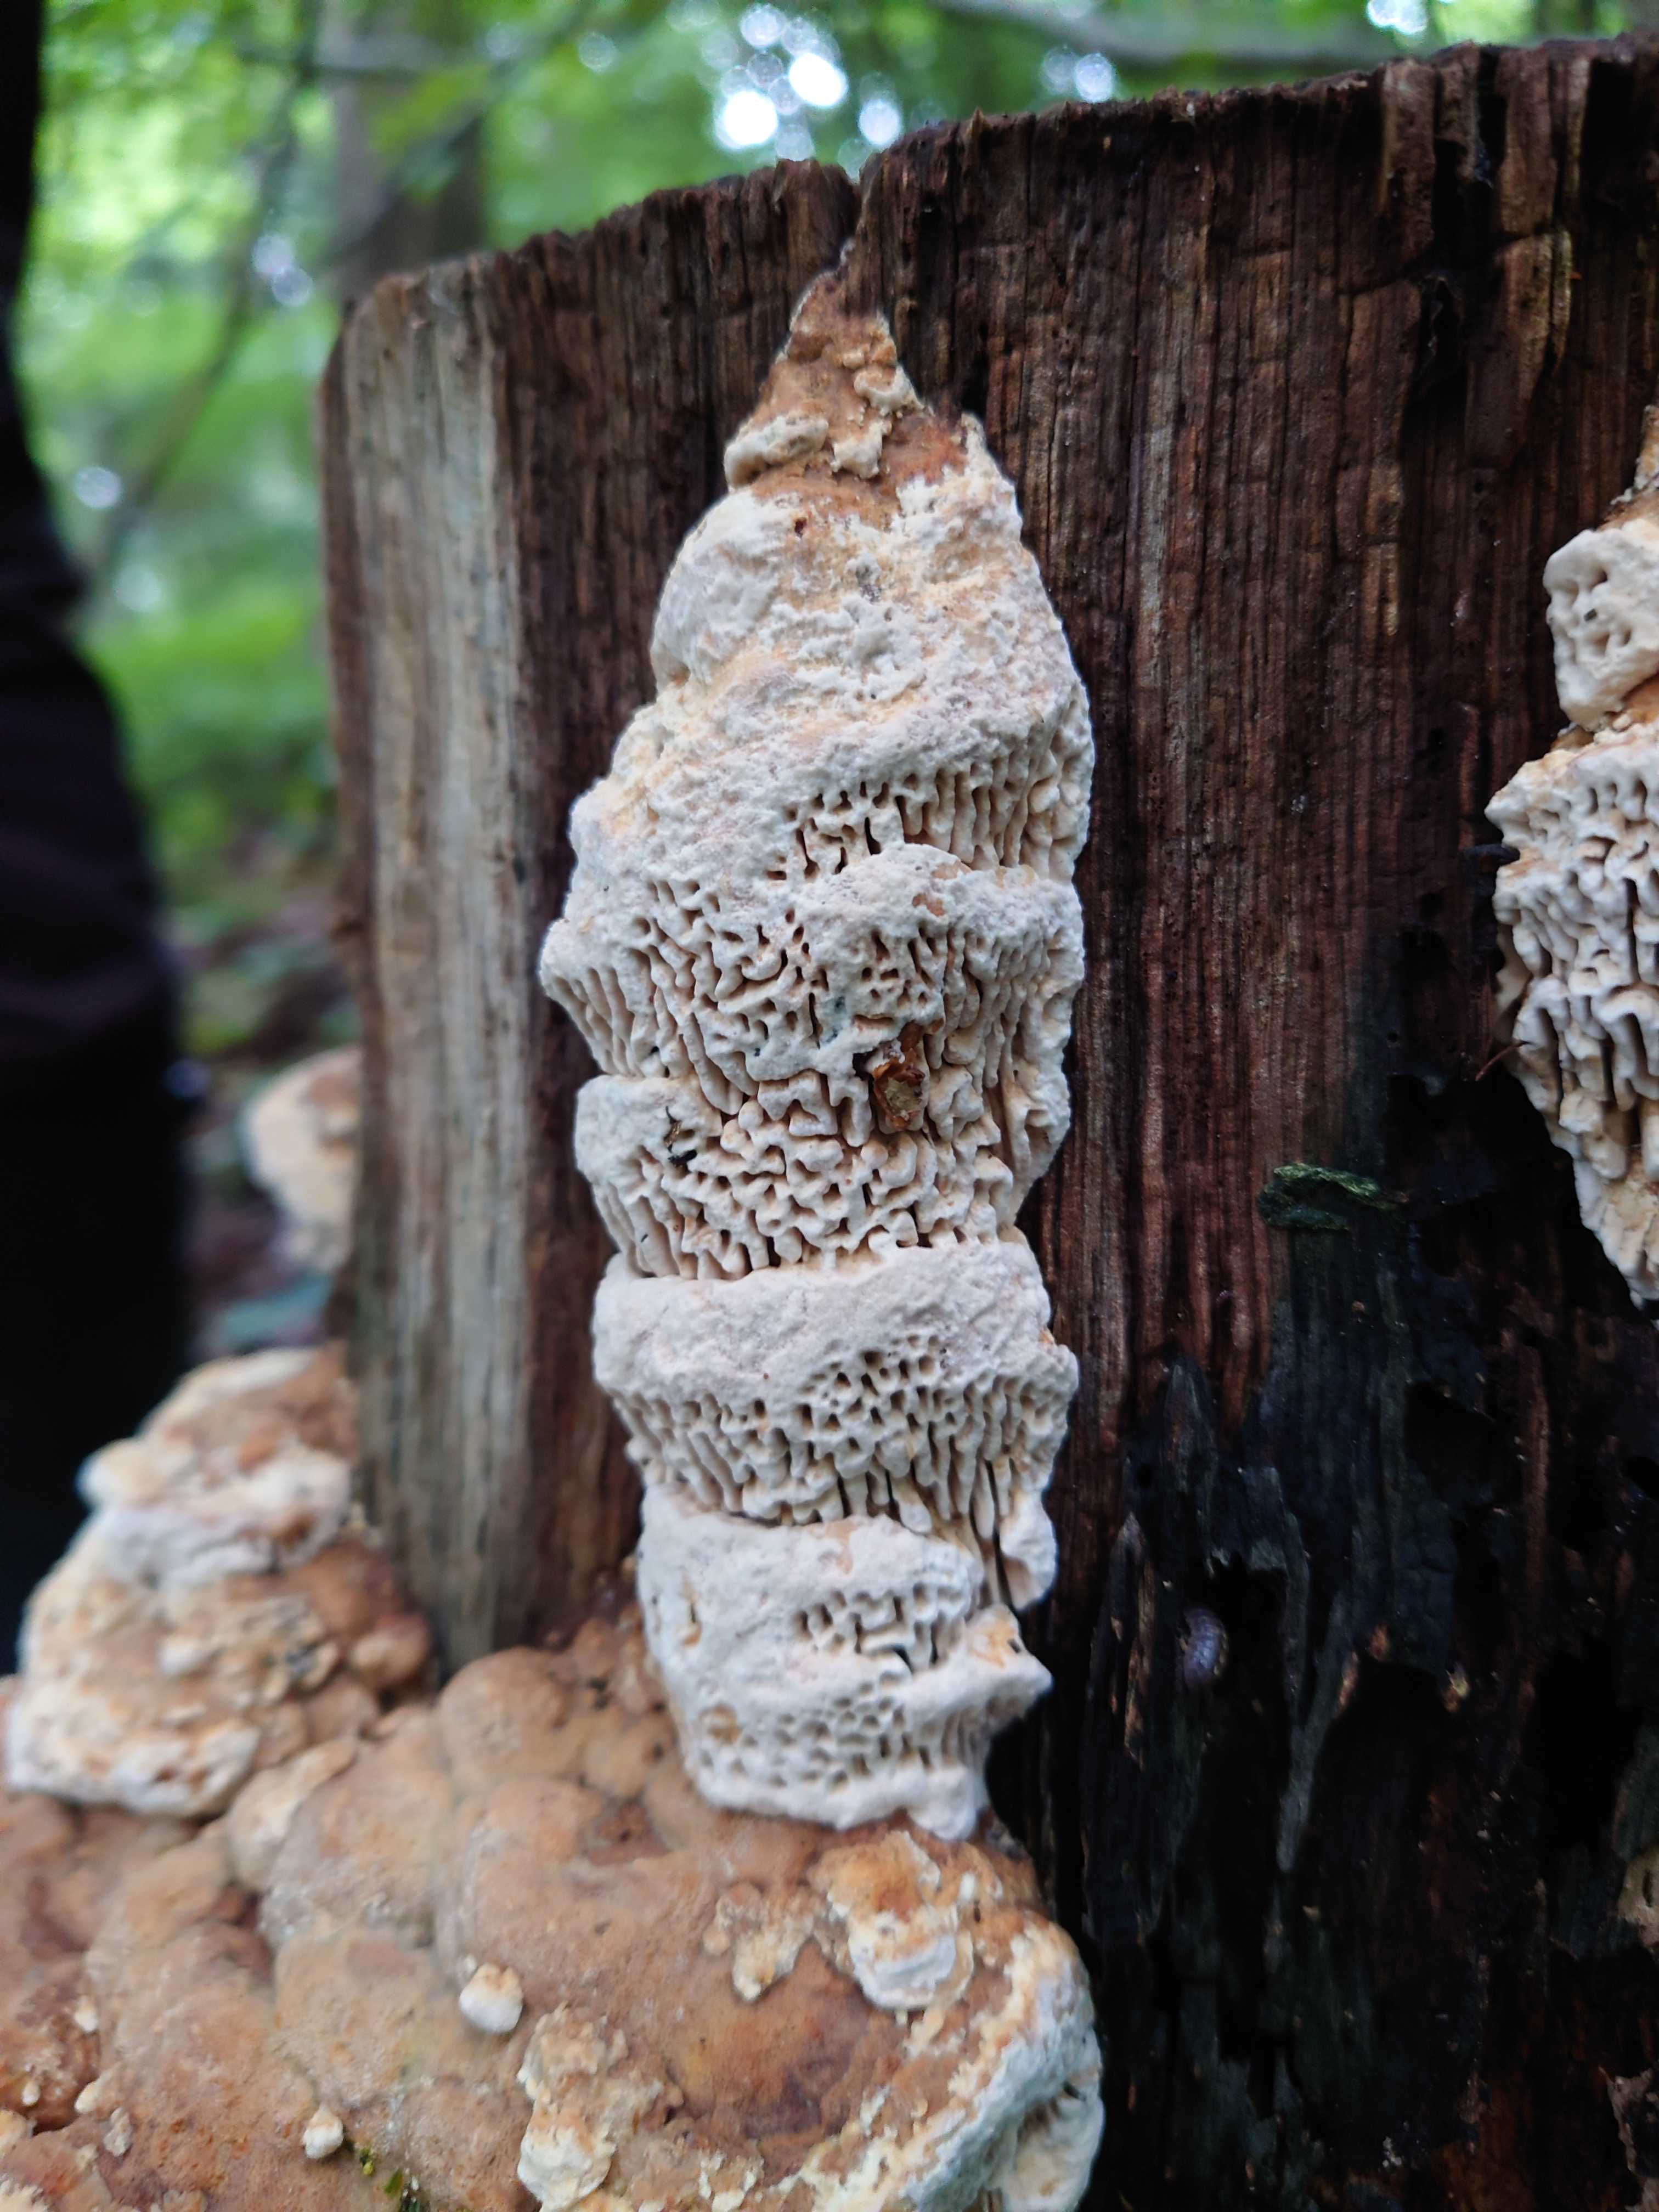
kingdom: Fungi
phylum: Basidiomycota
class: Agaricomycetes
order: Polyporales
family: Fomitopsidaceae
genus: Daedalea
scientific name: Daedalea quercina
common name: ege-labyrintsvamp
